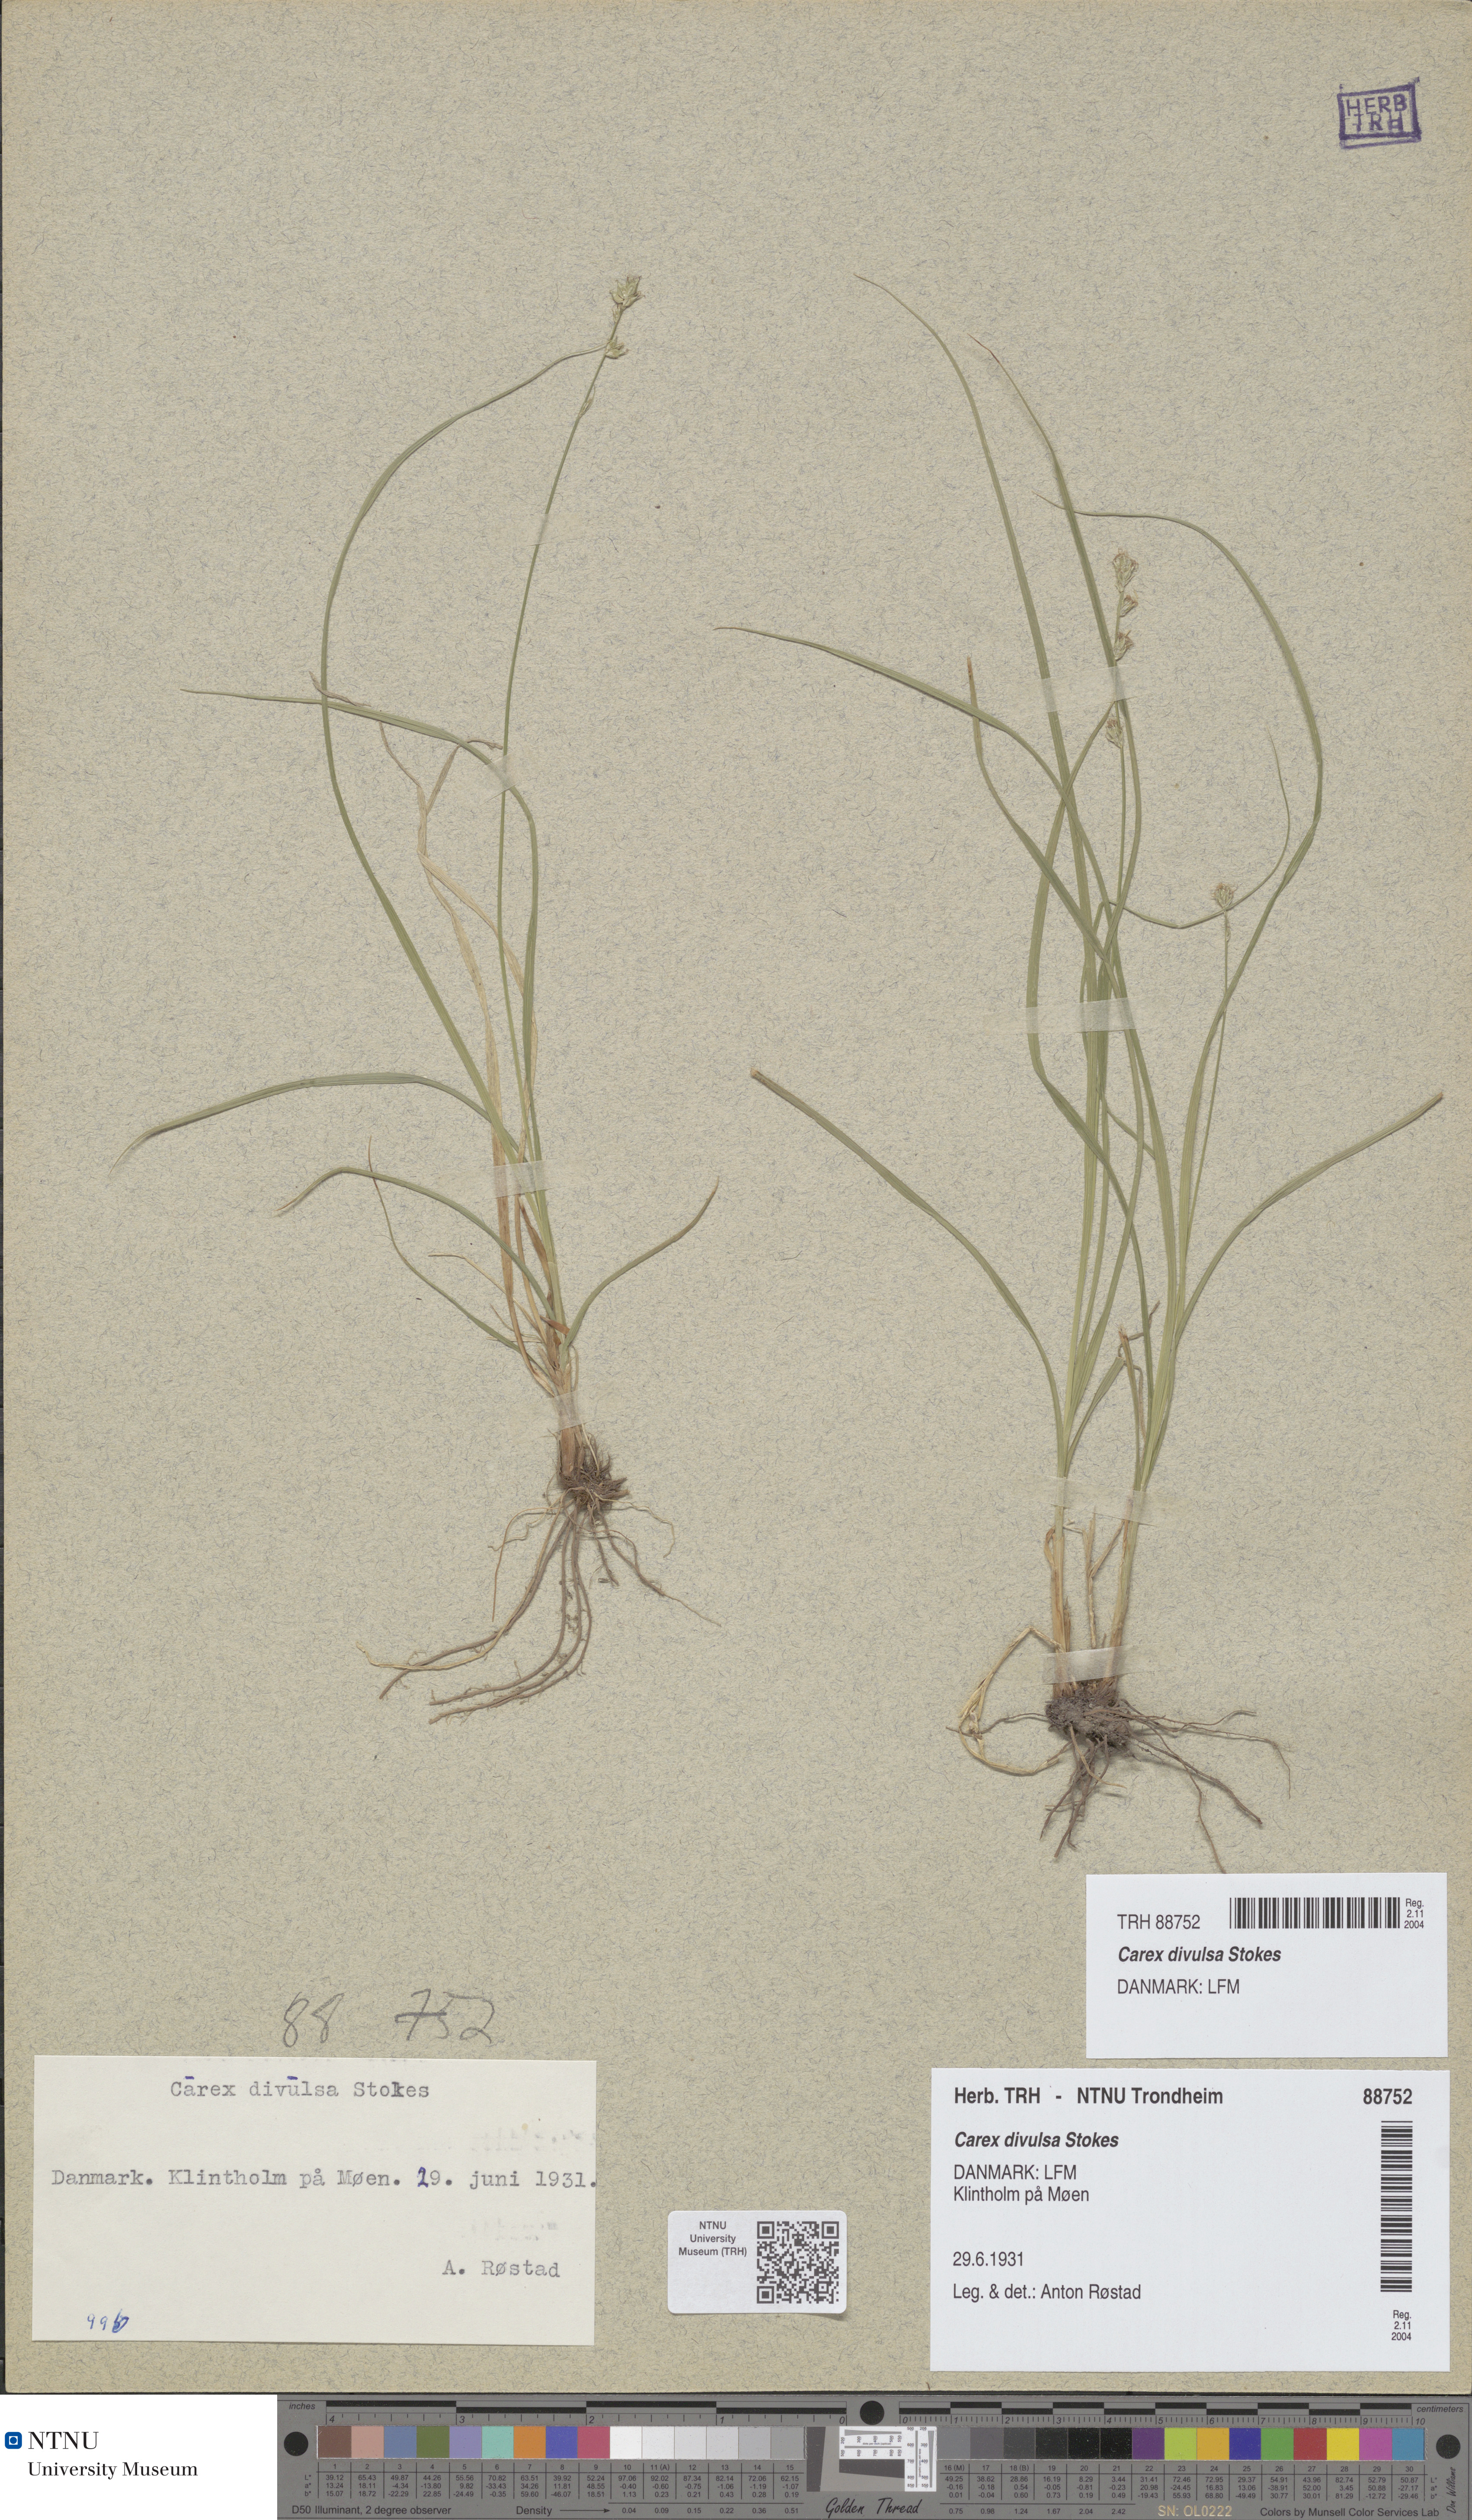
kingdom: Plantae
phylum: Tracheophyta
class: Liliopsida
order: Poales
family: Cyperaceae
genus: Carex
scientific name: Carex leersii
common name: Leers' sedge
